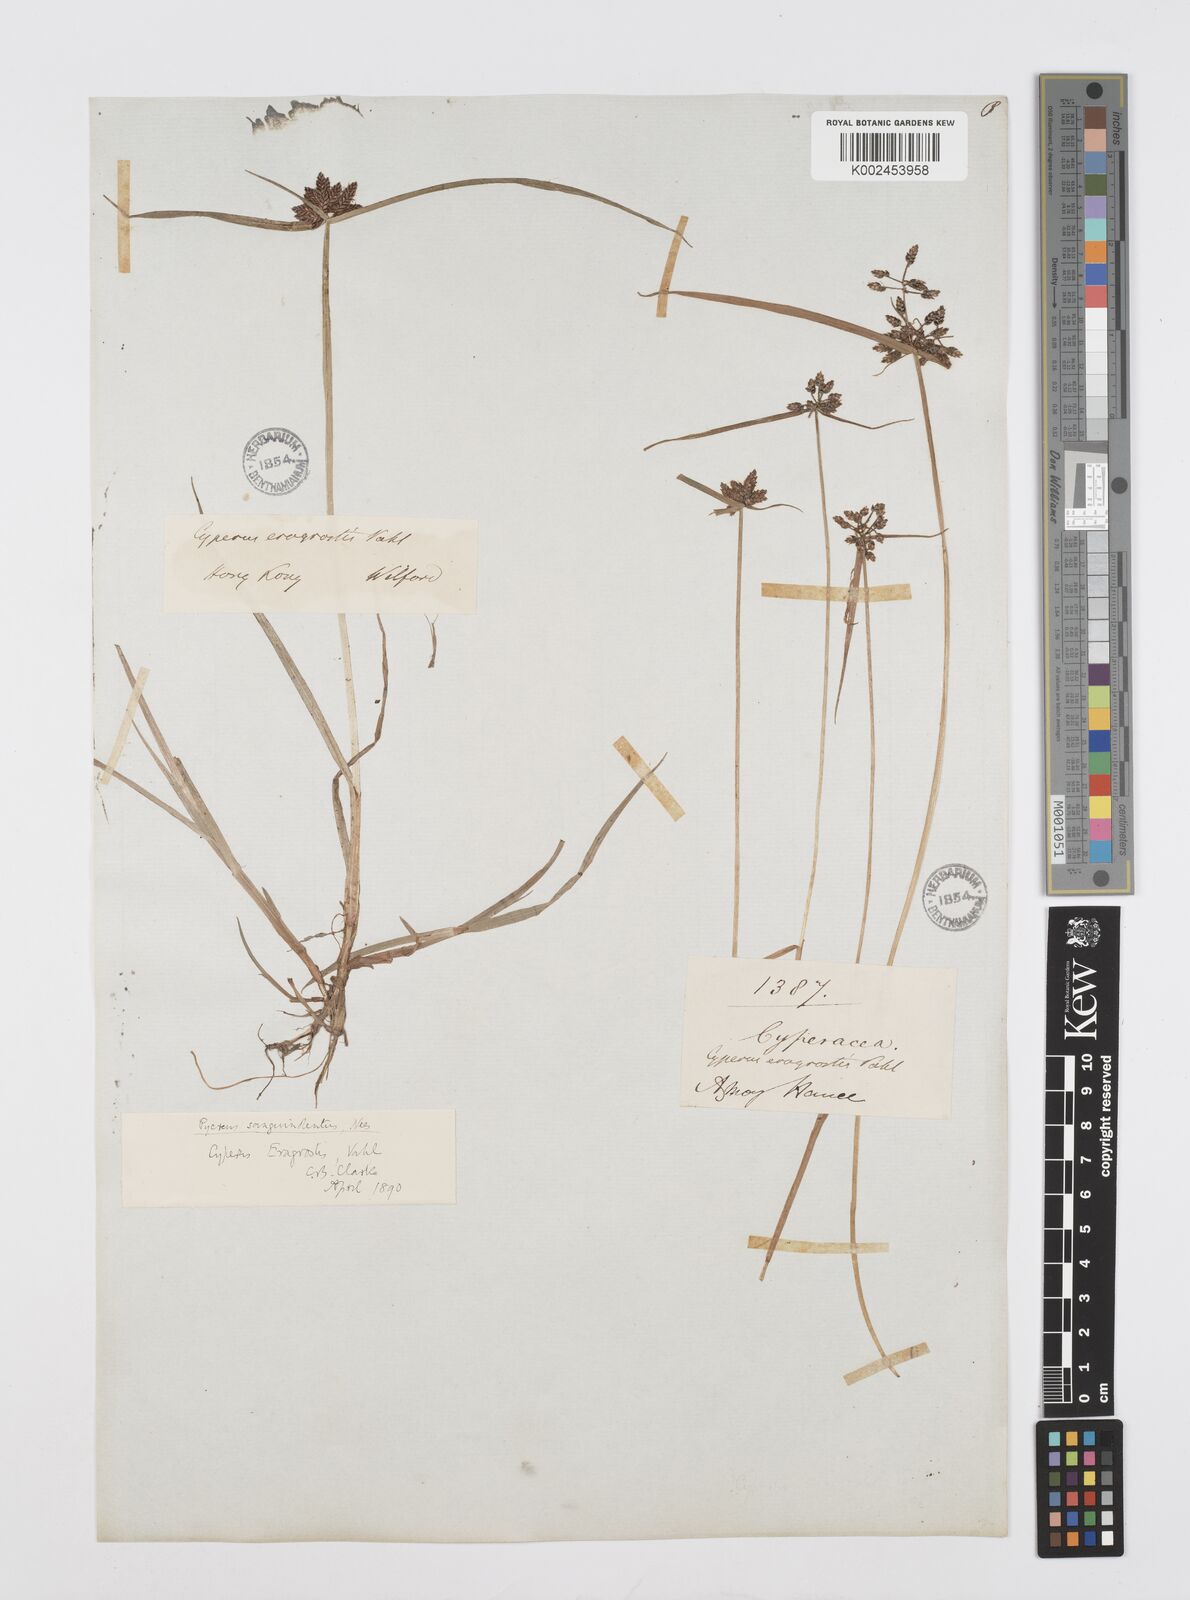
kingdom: Plantae
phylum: Tracheophyta
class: Liliopsida
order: Poales
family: Cyperaceae
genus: Cyperus
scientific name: Cyperus sanguinolentus
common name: Purpleglume flatsedge
